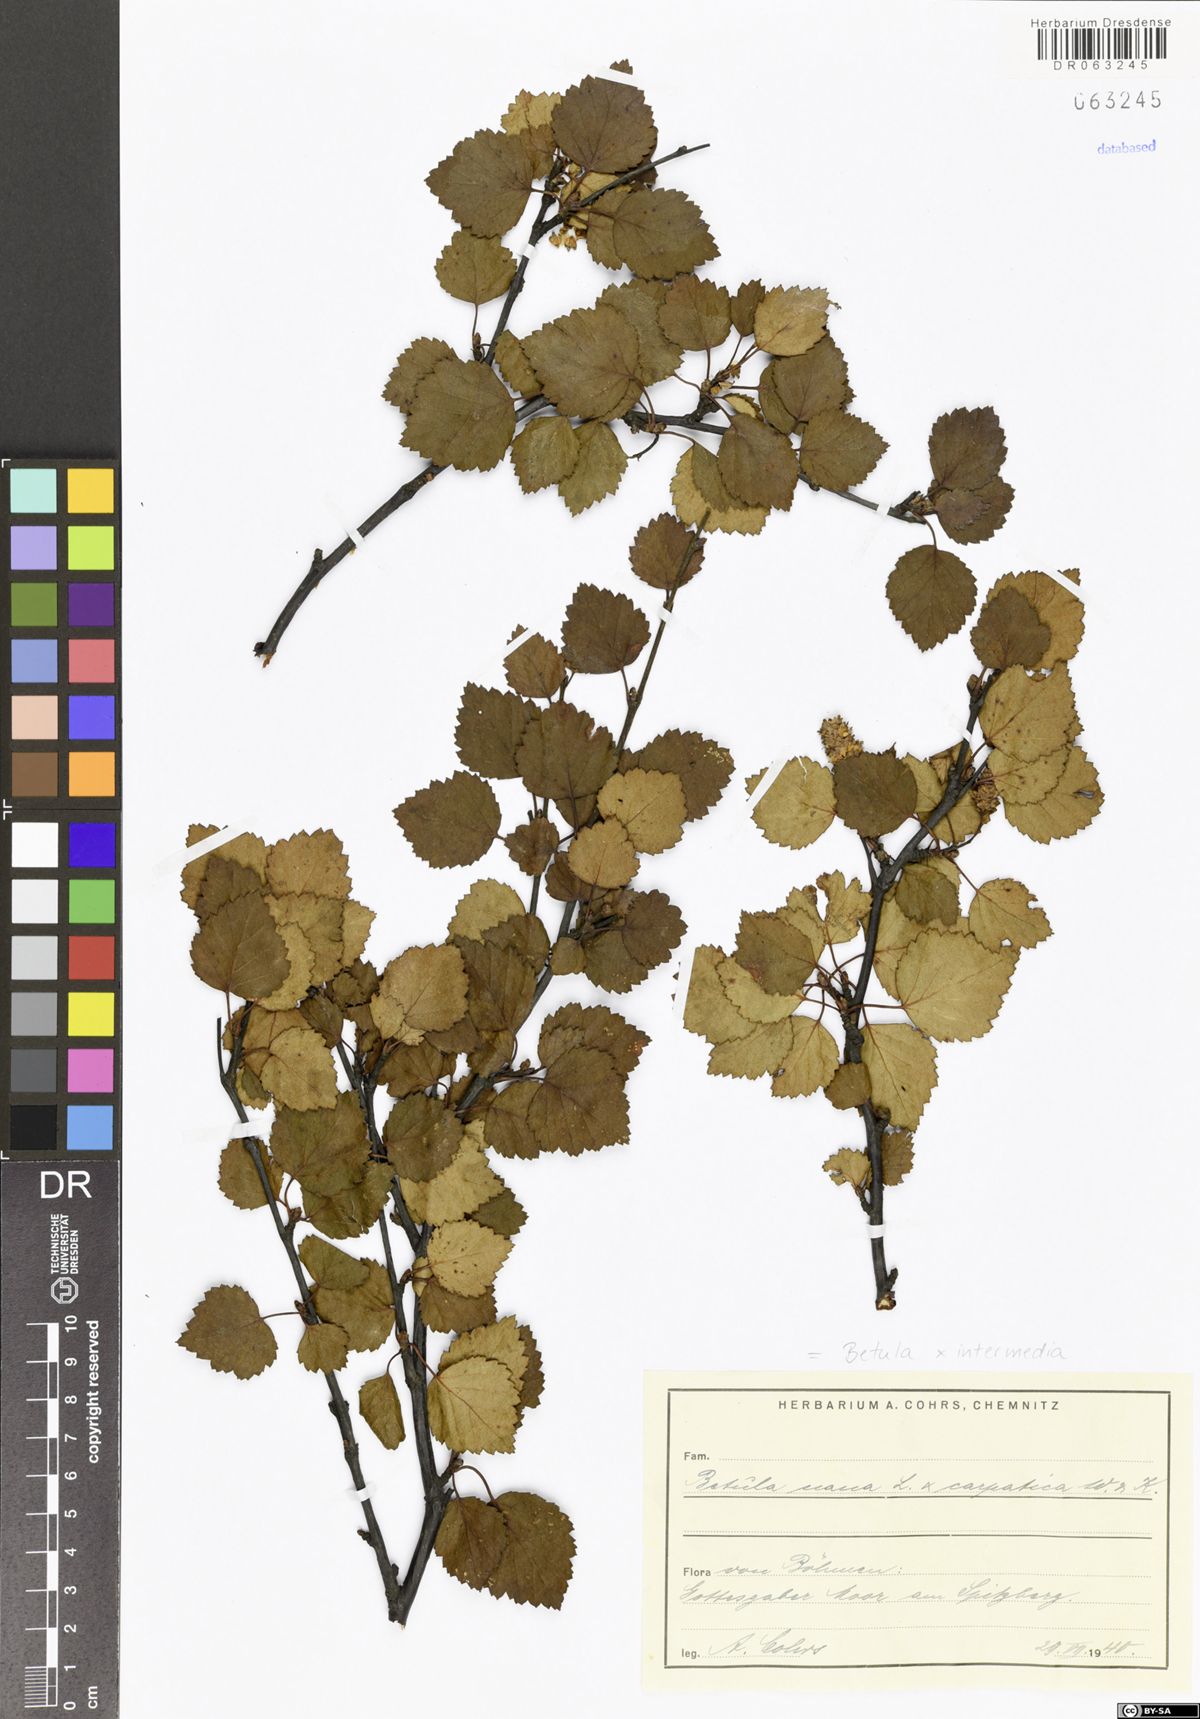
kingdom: Plantae
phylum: Tracheophyta
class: Magnoliopsida
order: Fagales
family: Betulaceae
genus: Betula
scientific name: Betula intermedia
